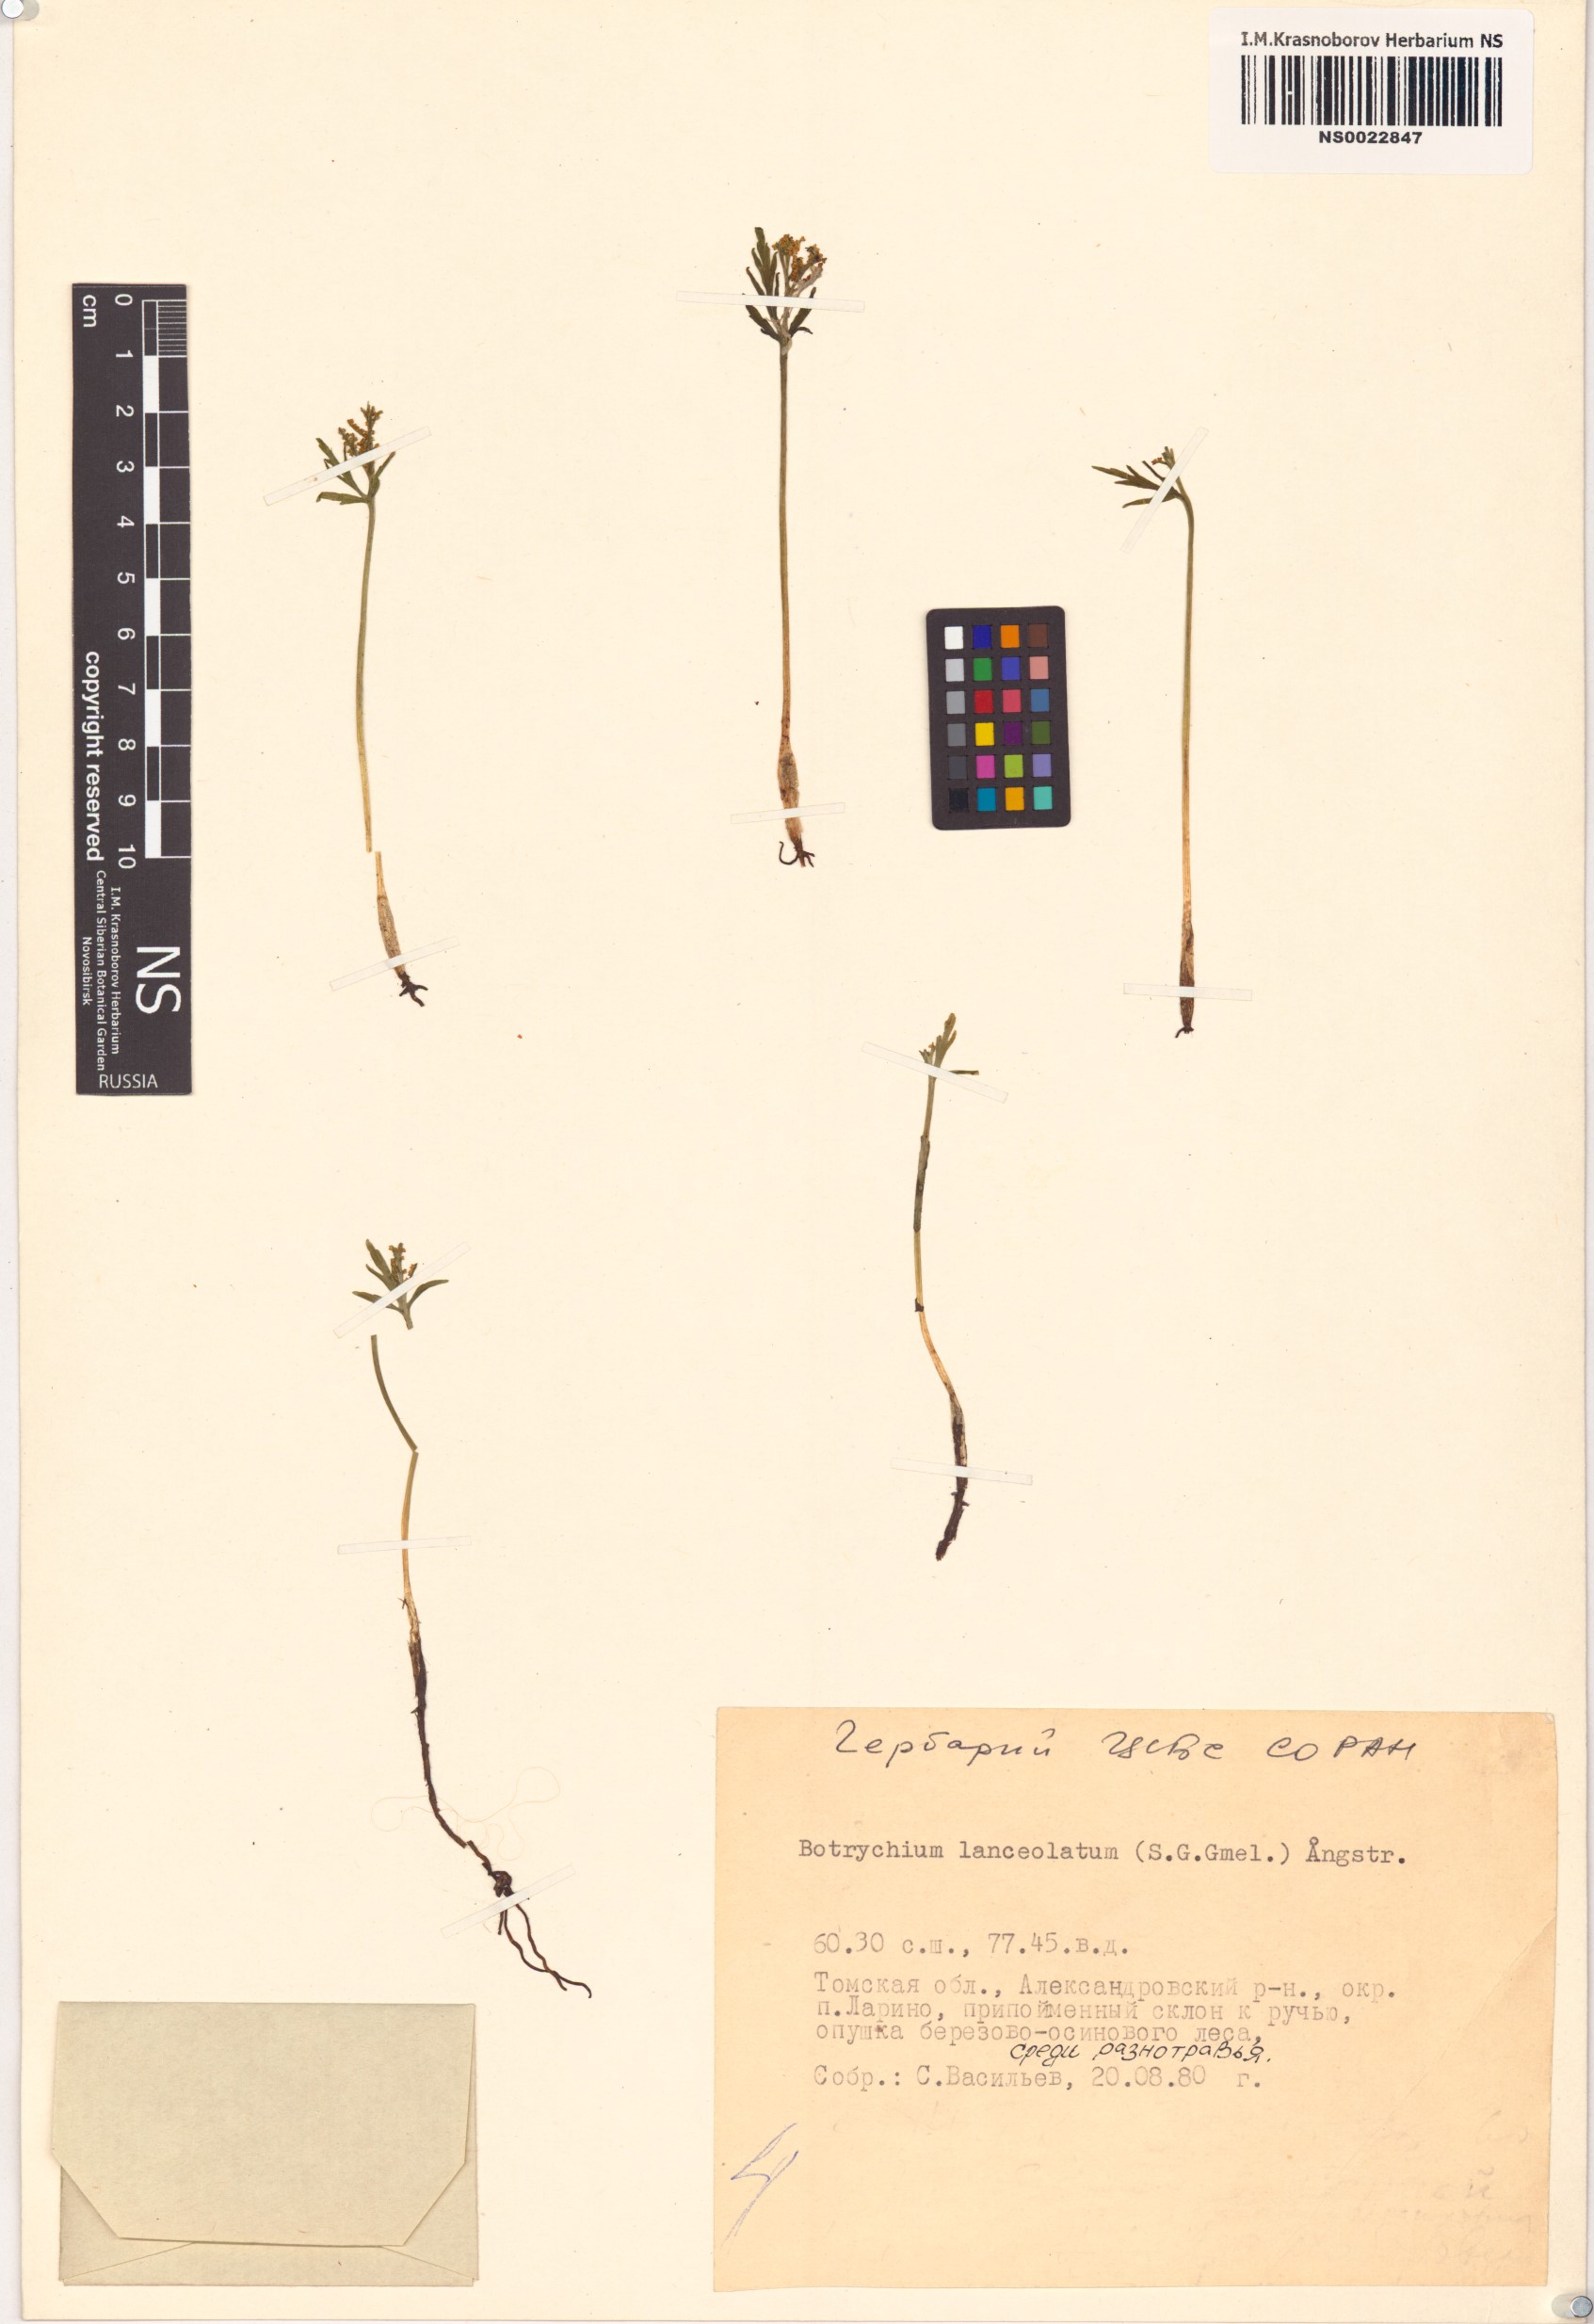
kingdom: Plantae
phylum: Tracheophyta
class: Polypodiopsida
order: Ophioglossales
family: Ophioglossaceae
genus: Botrychium
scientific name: Botrychium lanceolatum
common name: Lance-leaved moonwort
